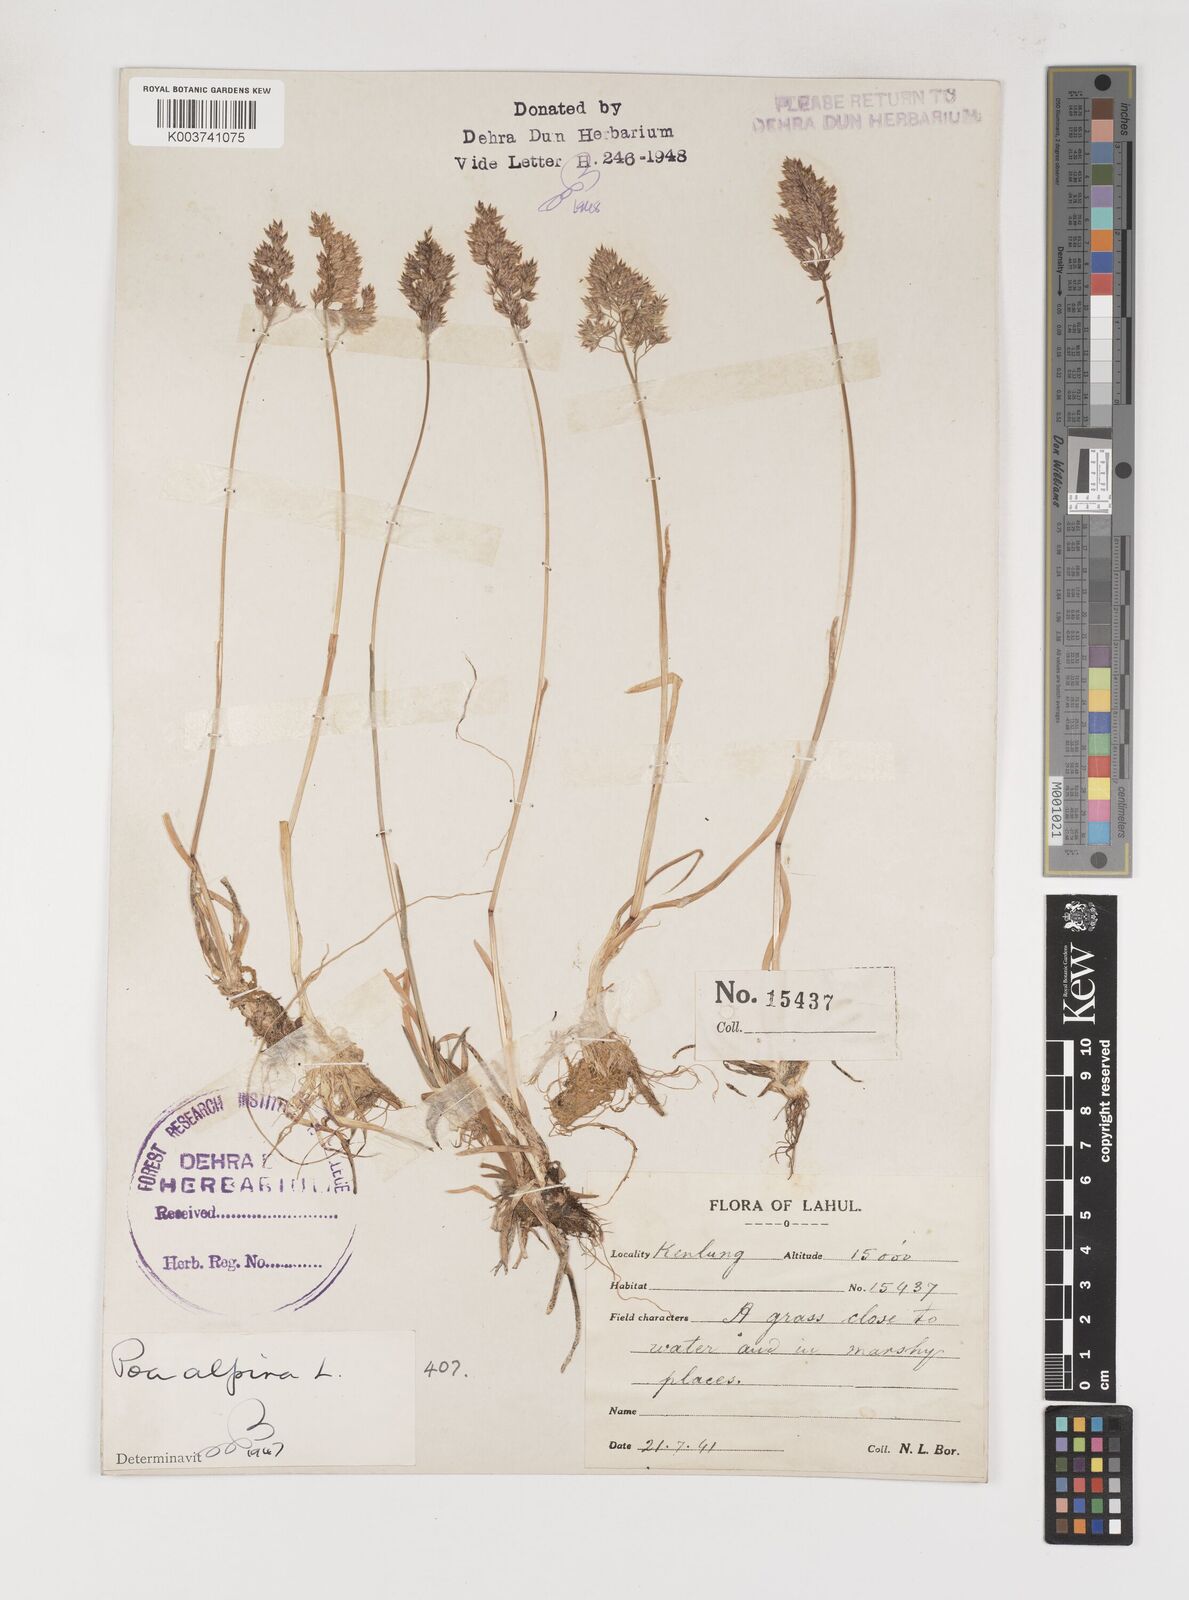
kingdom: Plantae
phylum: Tracheophyta
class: Liliopsida
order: Poales
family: Poaceae
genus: Poa
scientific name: Poa alpina
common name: Alpine bluegrass
